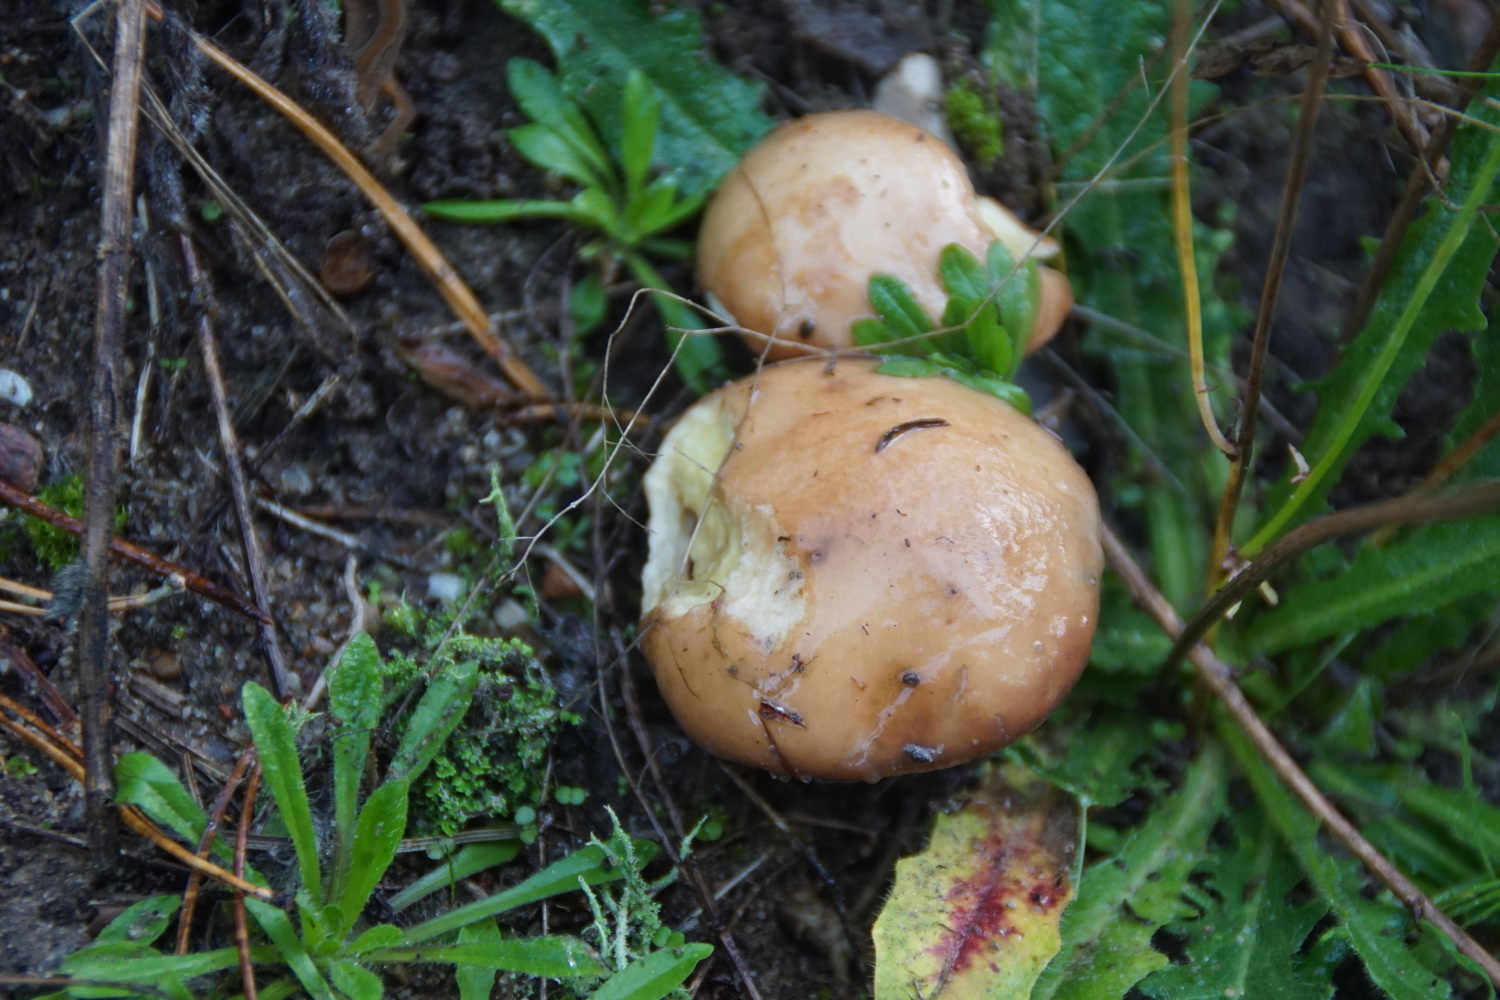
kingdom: Fungi
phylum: Basidiomycota
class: Agaricomycetes
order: Boletales
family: Suillaceae
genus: Suillus
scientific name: Suillus granulatus
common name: kornet slimrørhat
